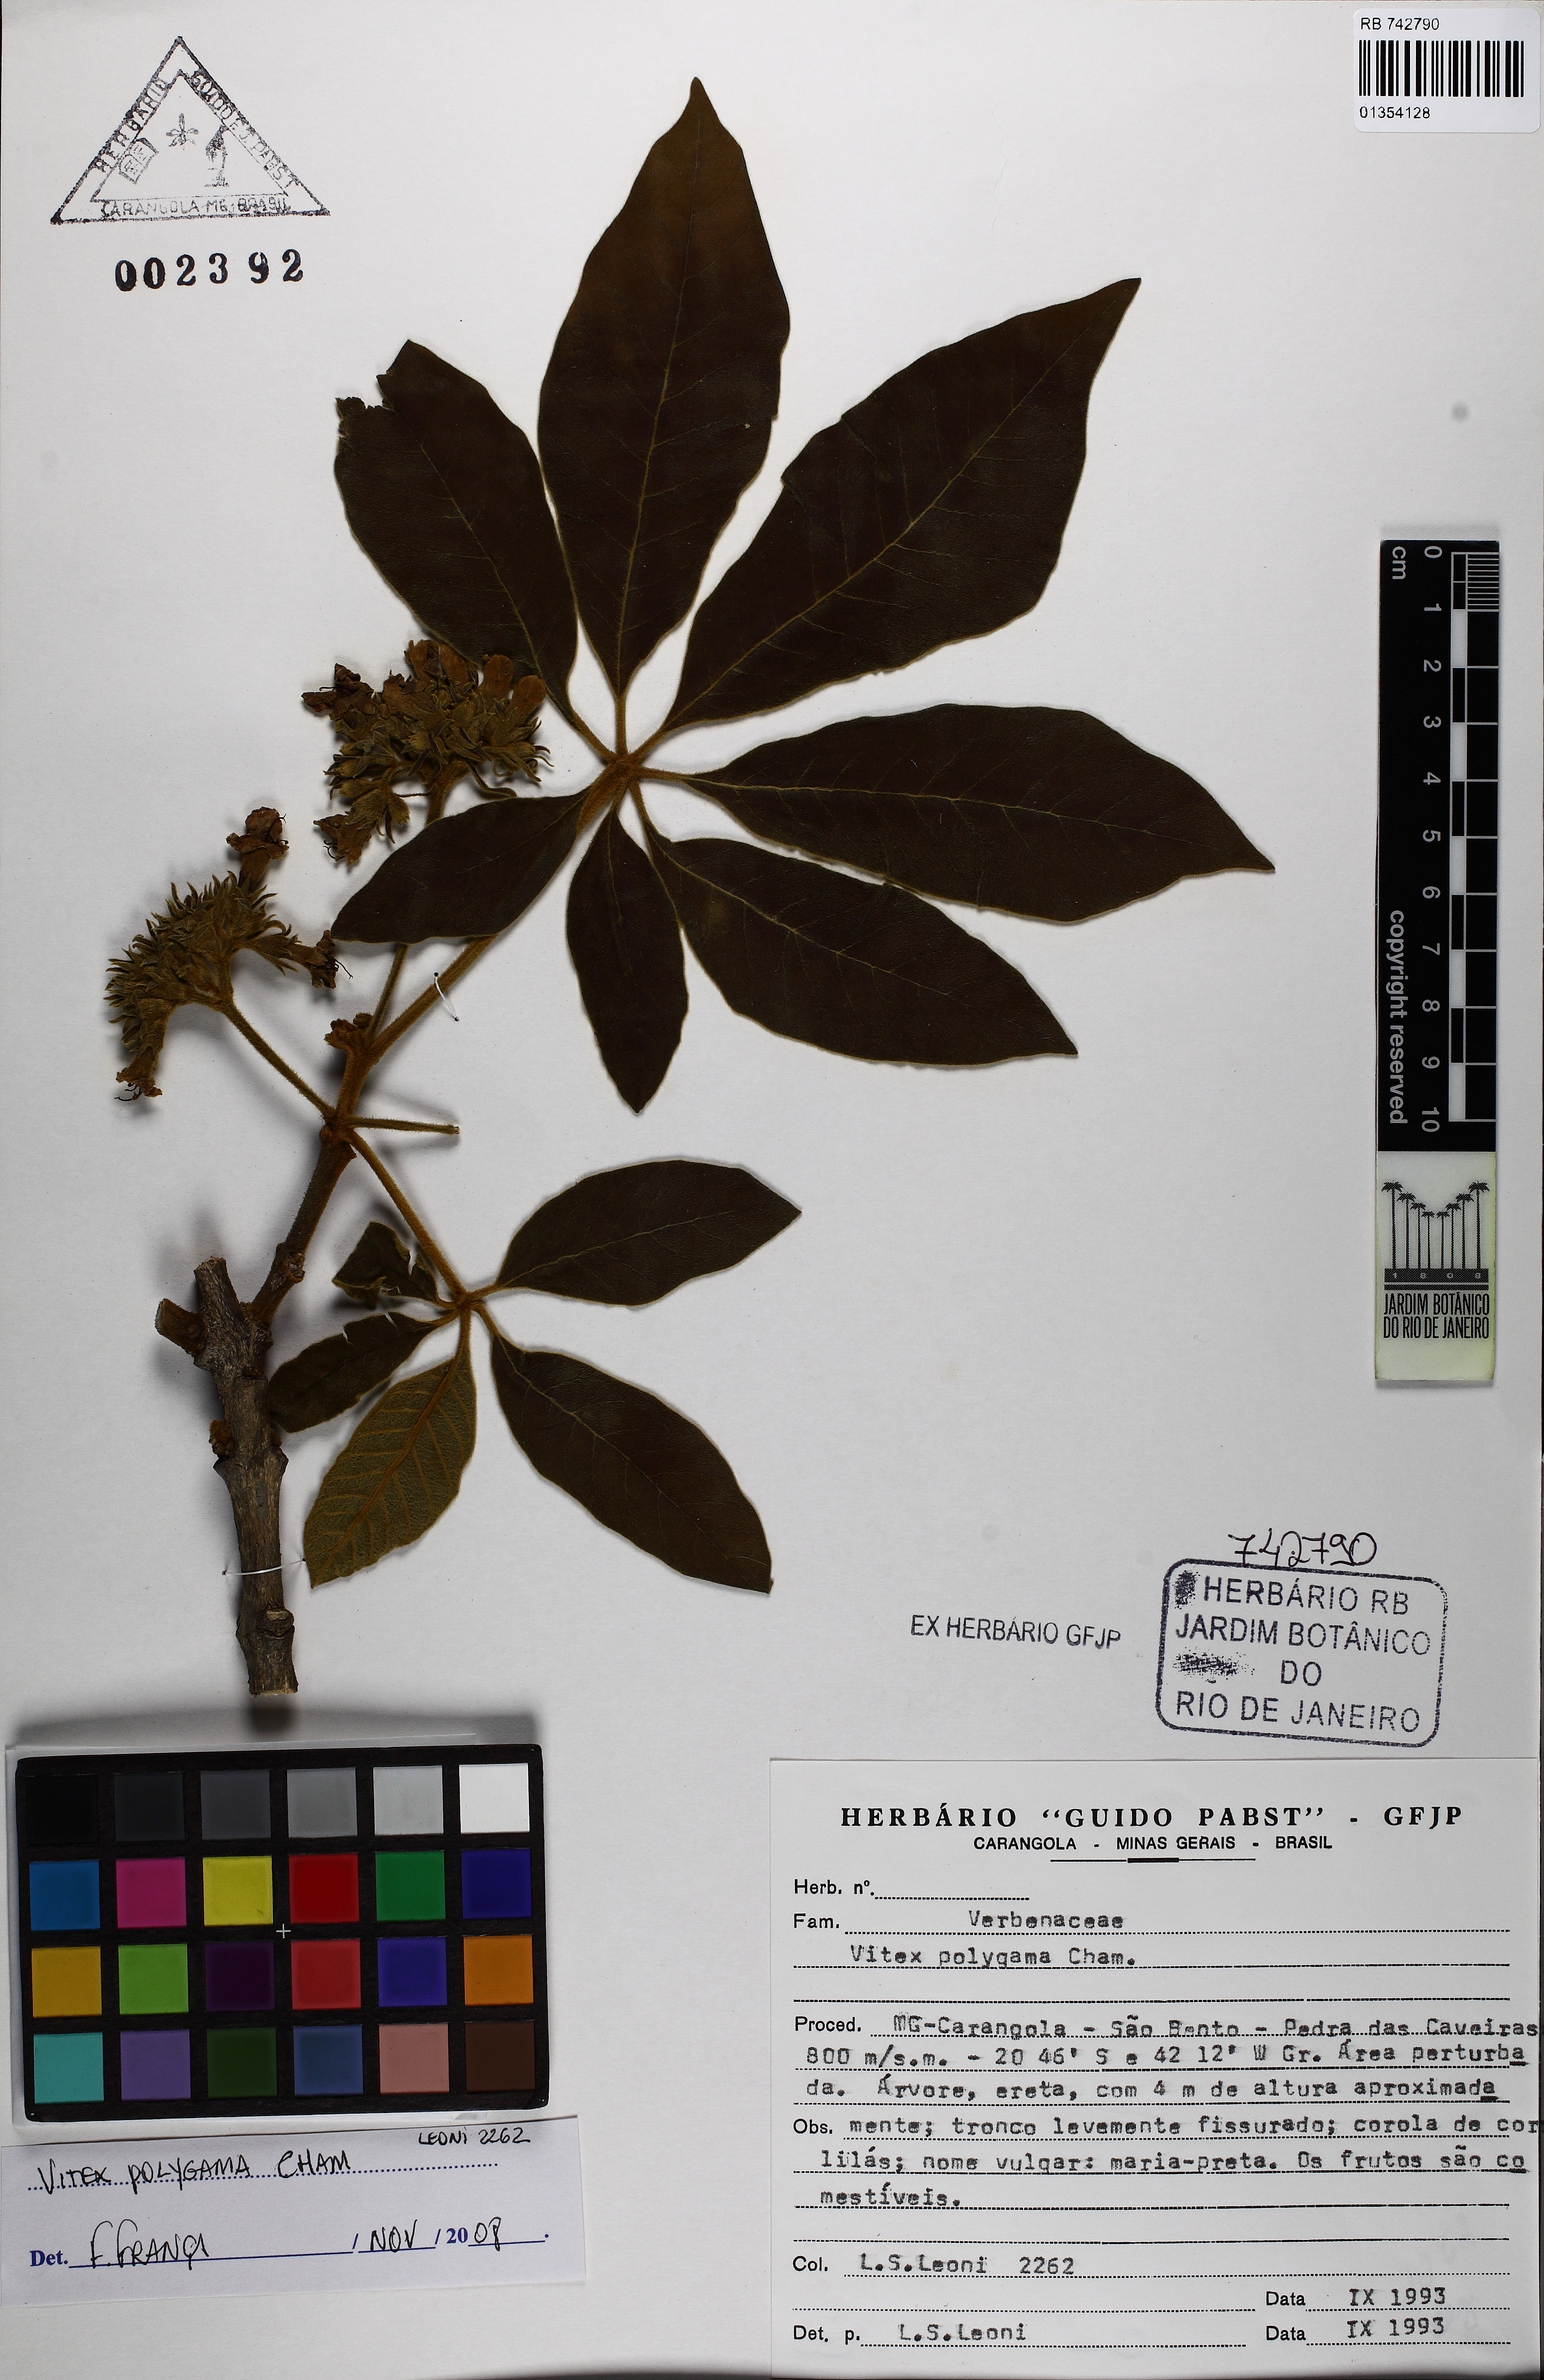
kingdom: Plantae
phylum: Tracheophyta
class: Magnoliopsida
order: Lamiales
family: Lamiaceae
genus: Vitex
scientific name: Vitex polygama
